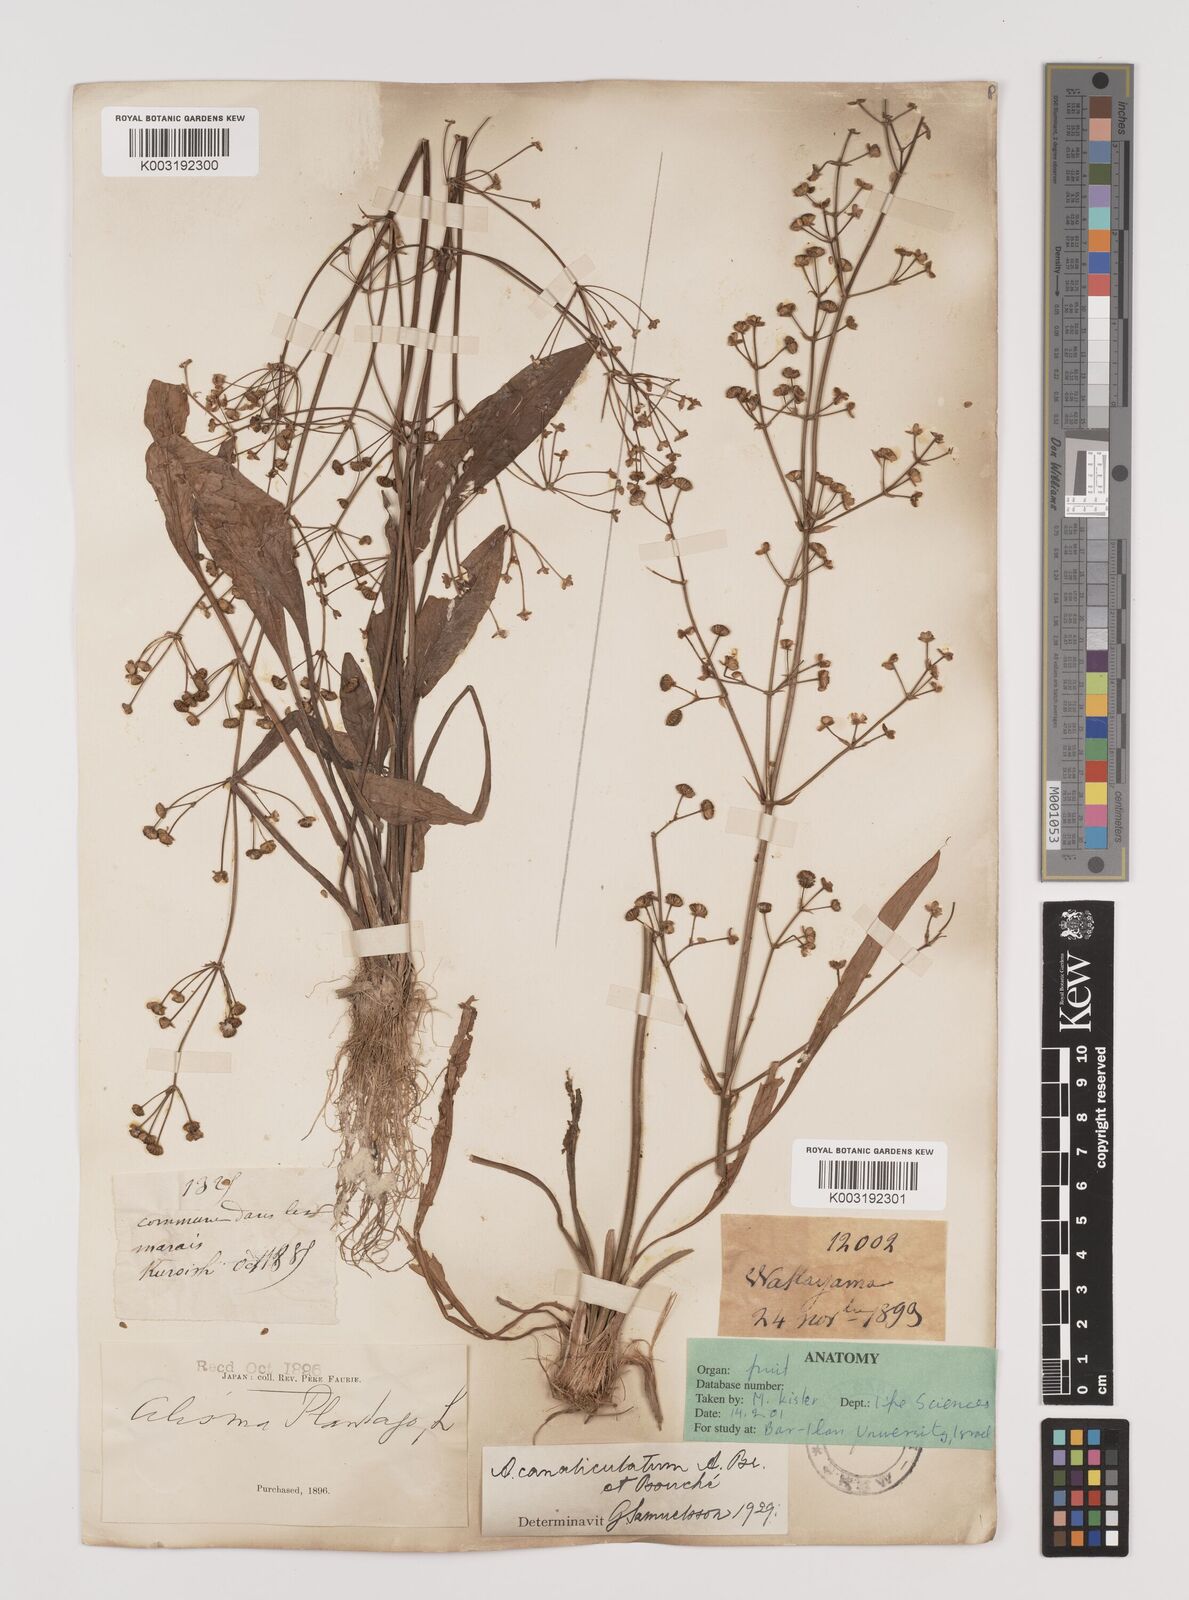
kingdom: Plantae
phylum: Tracheophyta
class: Liliopsida
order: Alismatales
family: Alismataceae
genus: Alisma
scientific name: Alisma canaliculatum
